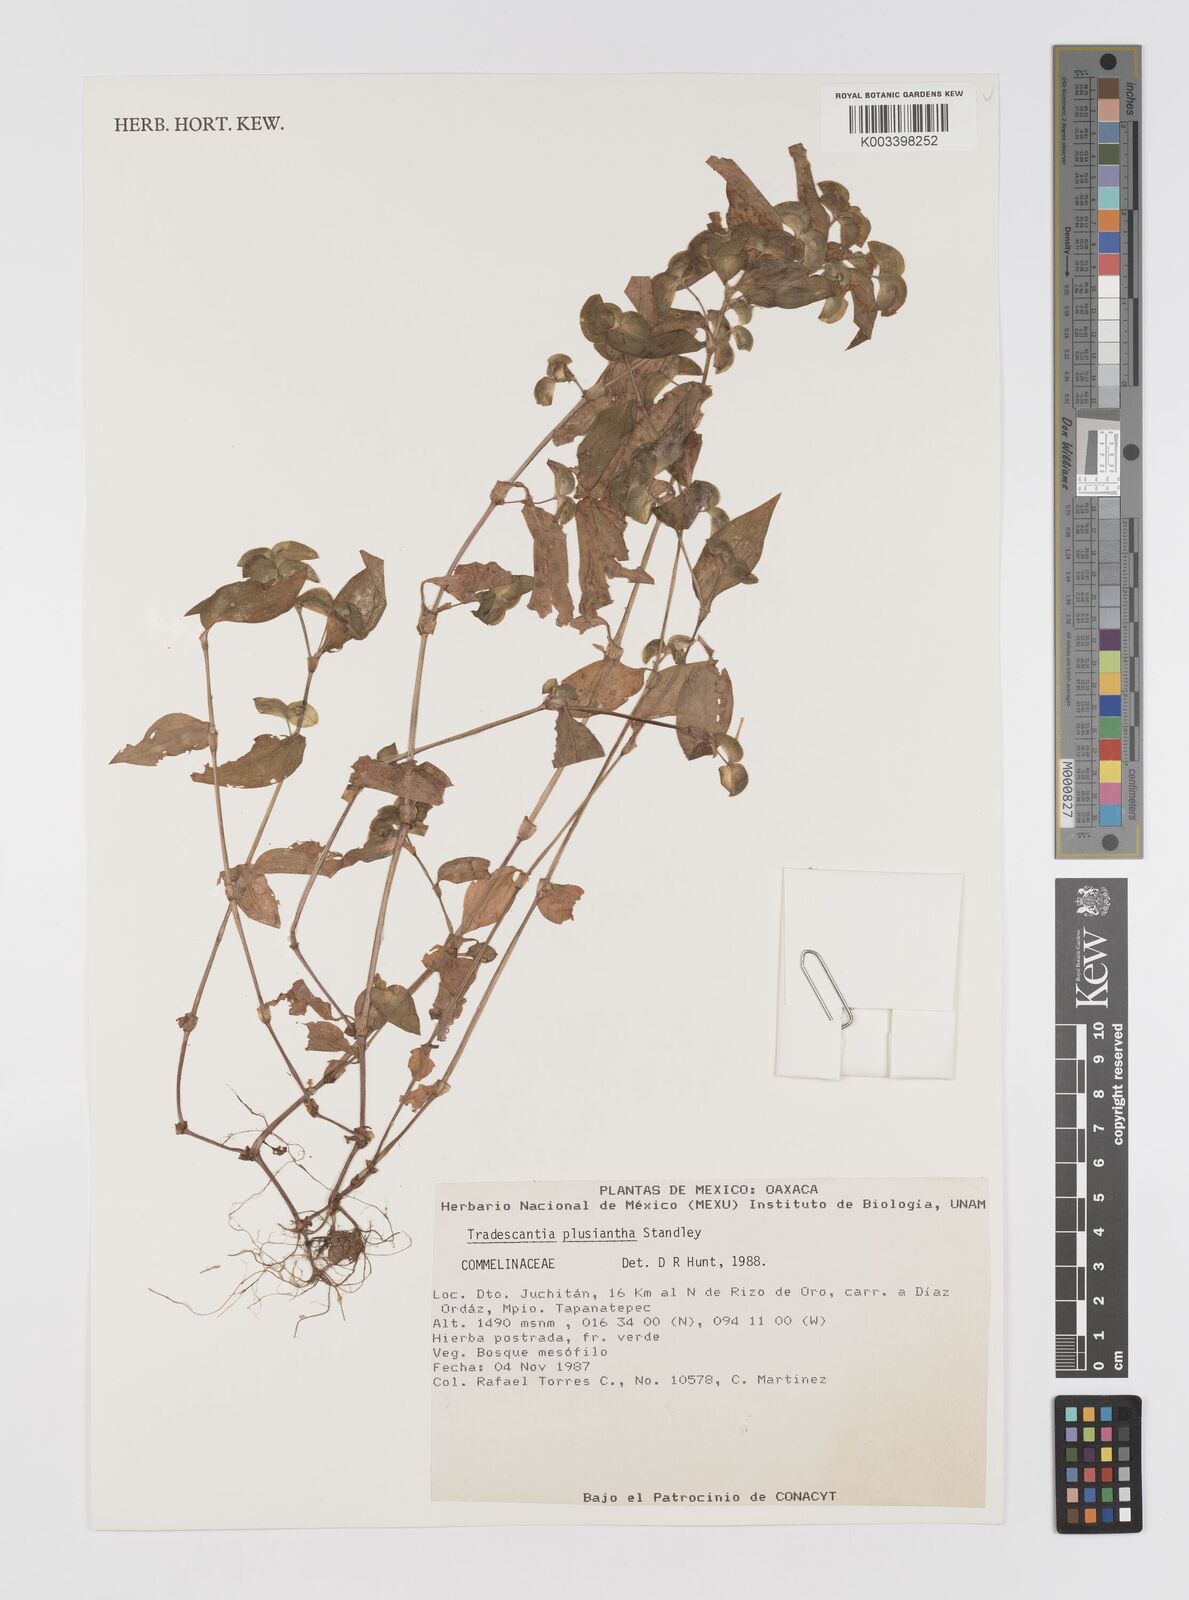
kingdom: Plantae
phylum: Tracheophyta
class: Liliopsida
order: Commelinales
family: Commelinaceae
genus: Tradescantia
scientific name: Tradescantia plusiantha
